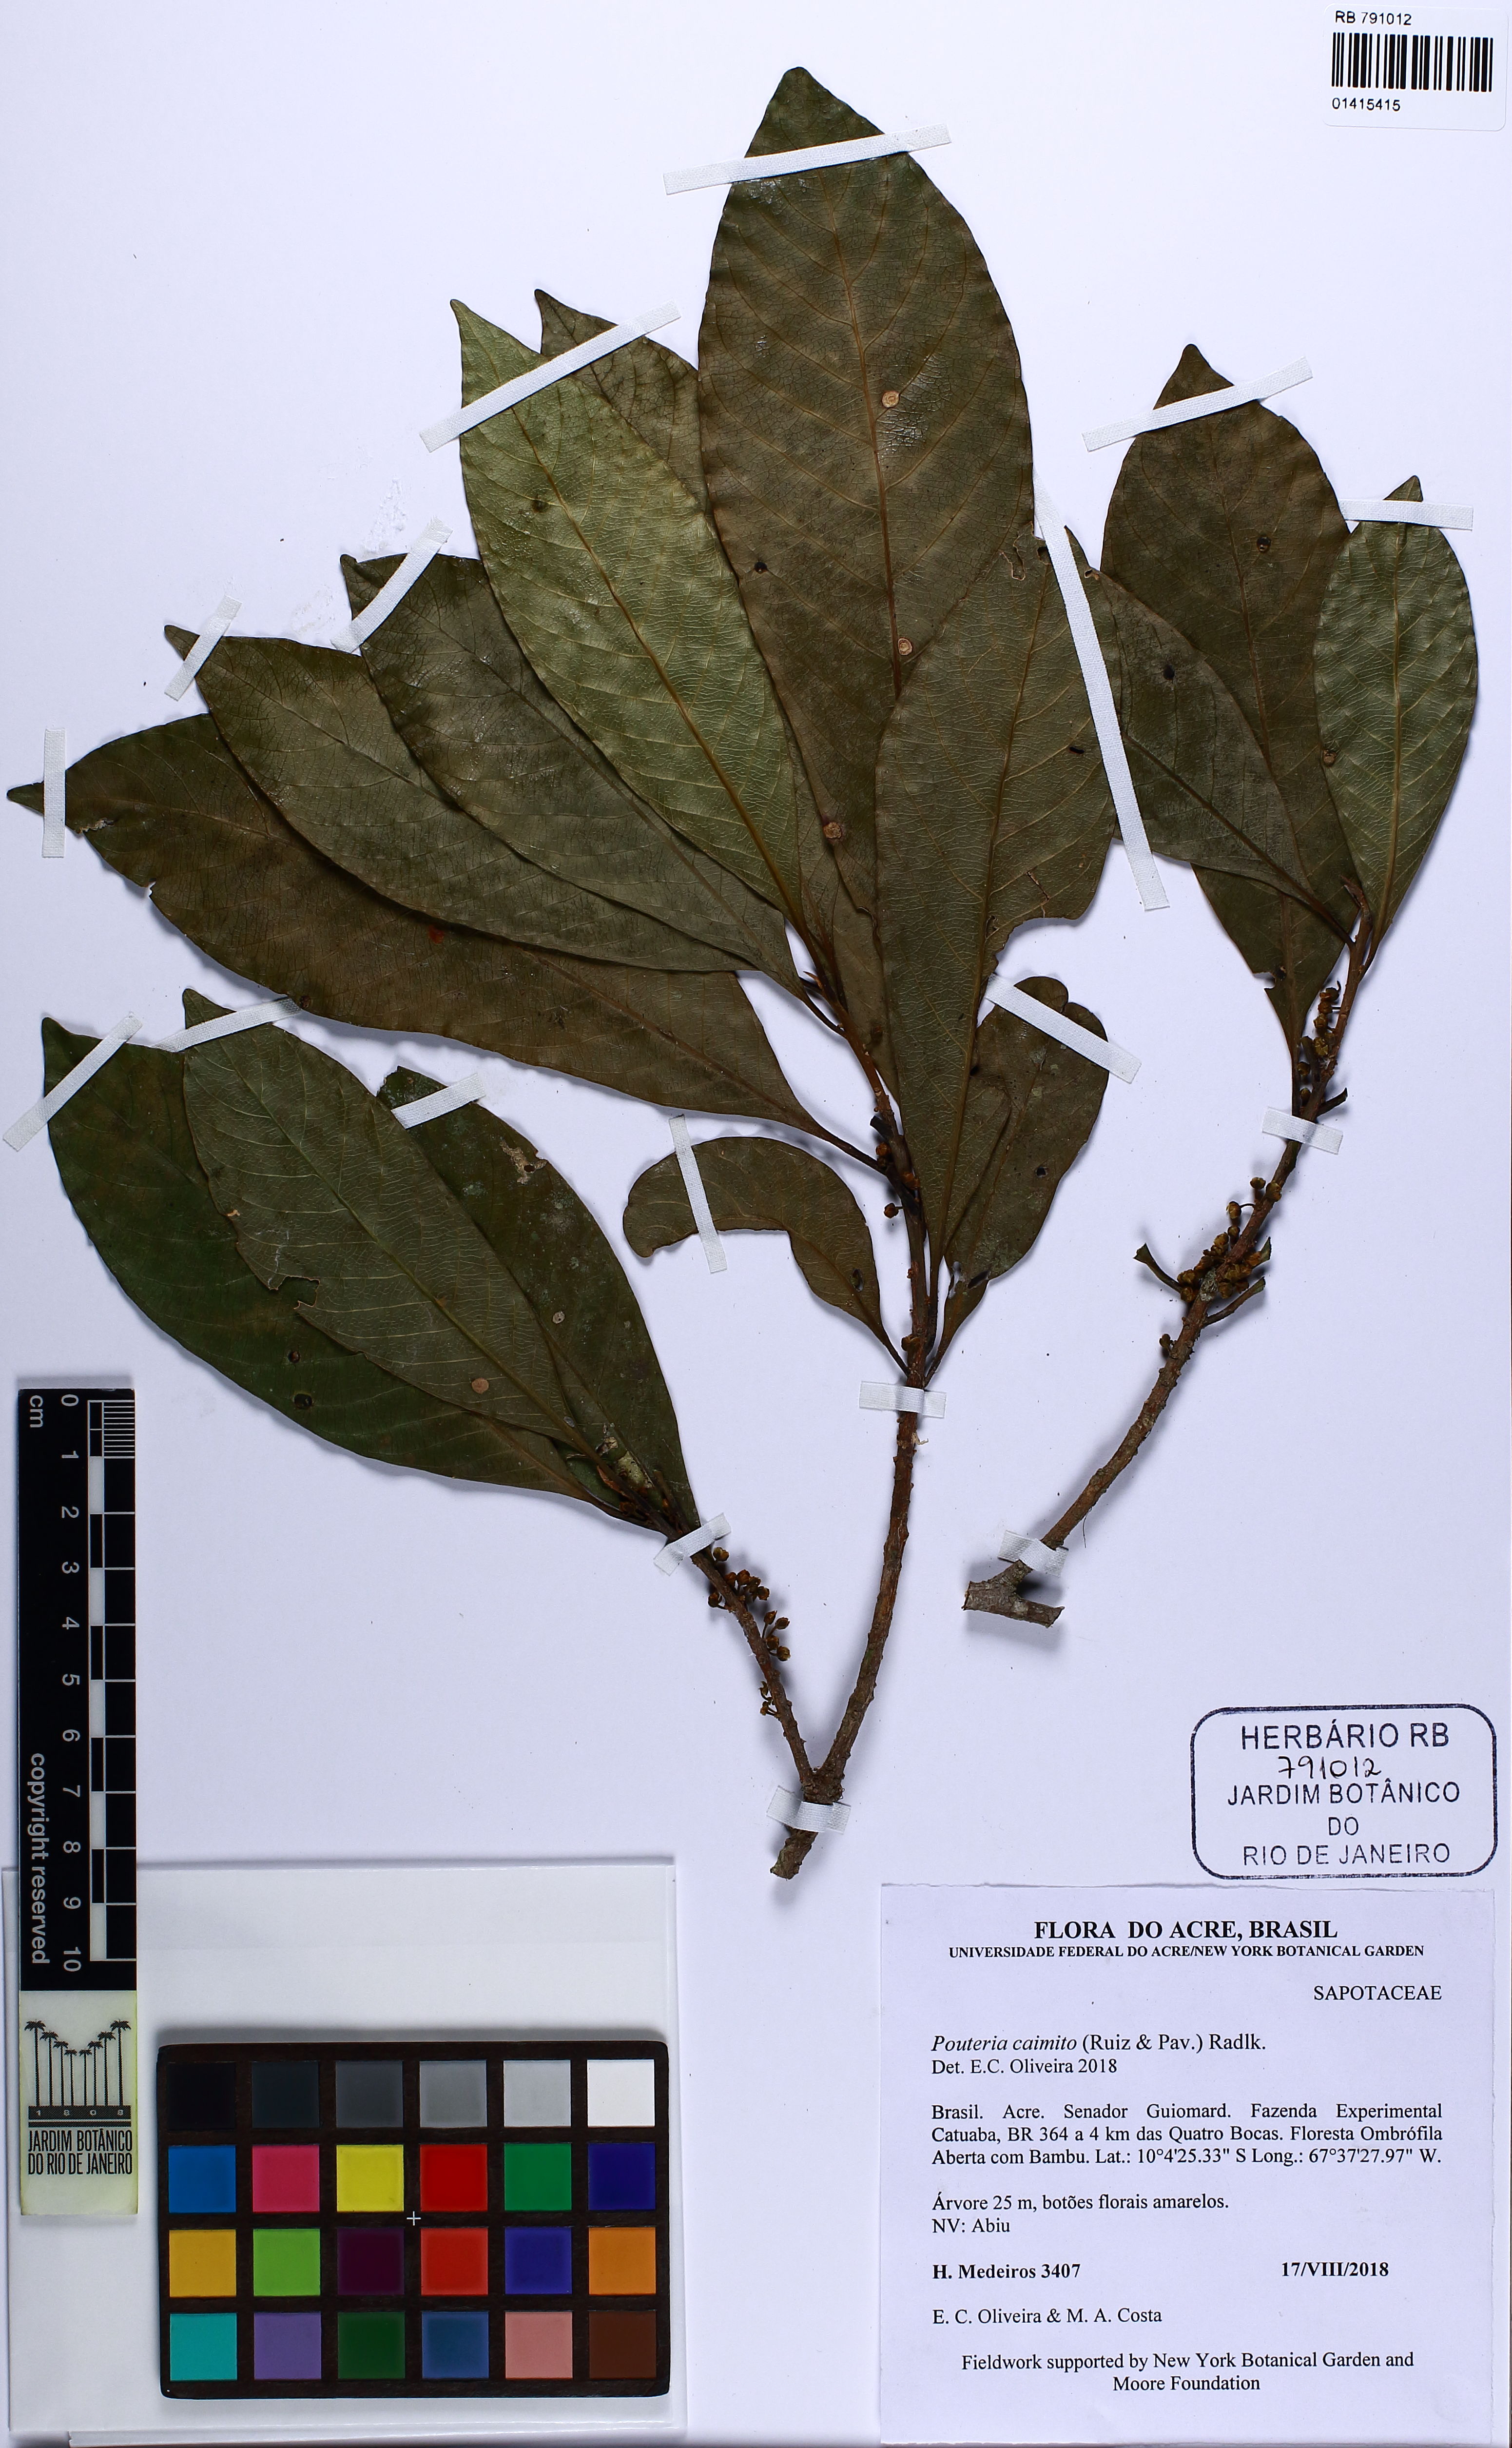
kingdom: Plantae
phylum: Tracheophyta
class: Magnoliopsida
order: Ericales
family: Sapotaceae
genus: Pouteria
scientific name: Pouteria caimito
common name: Caimito
